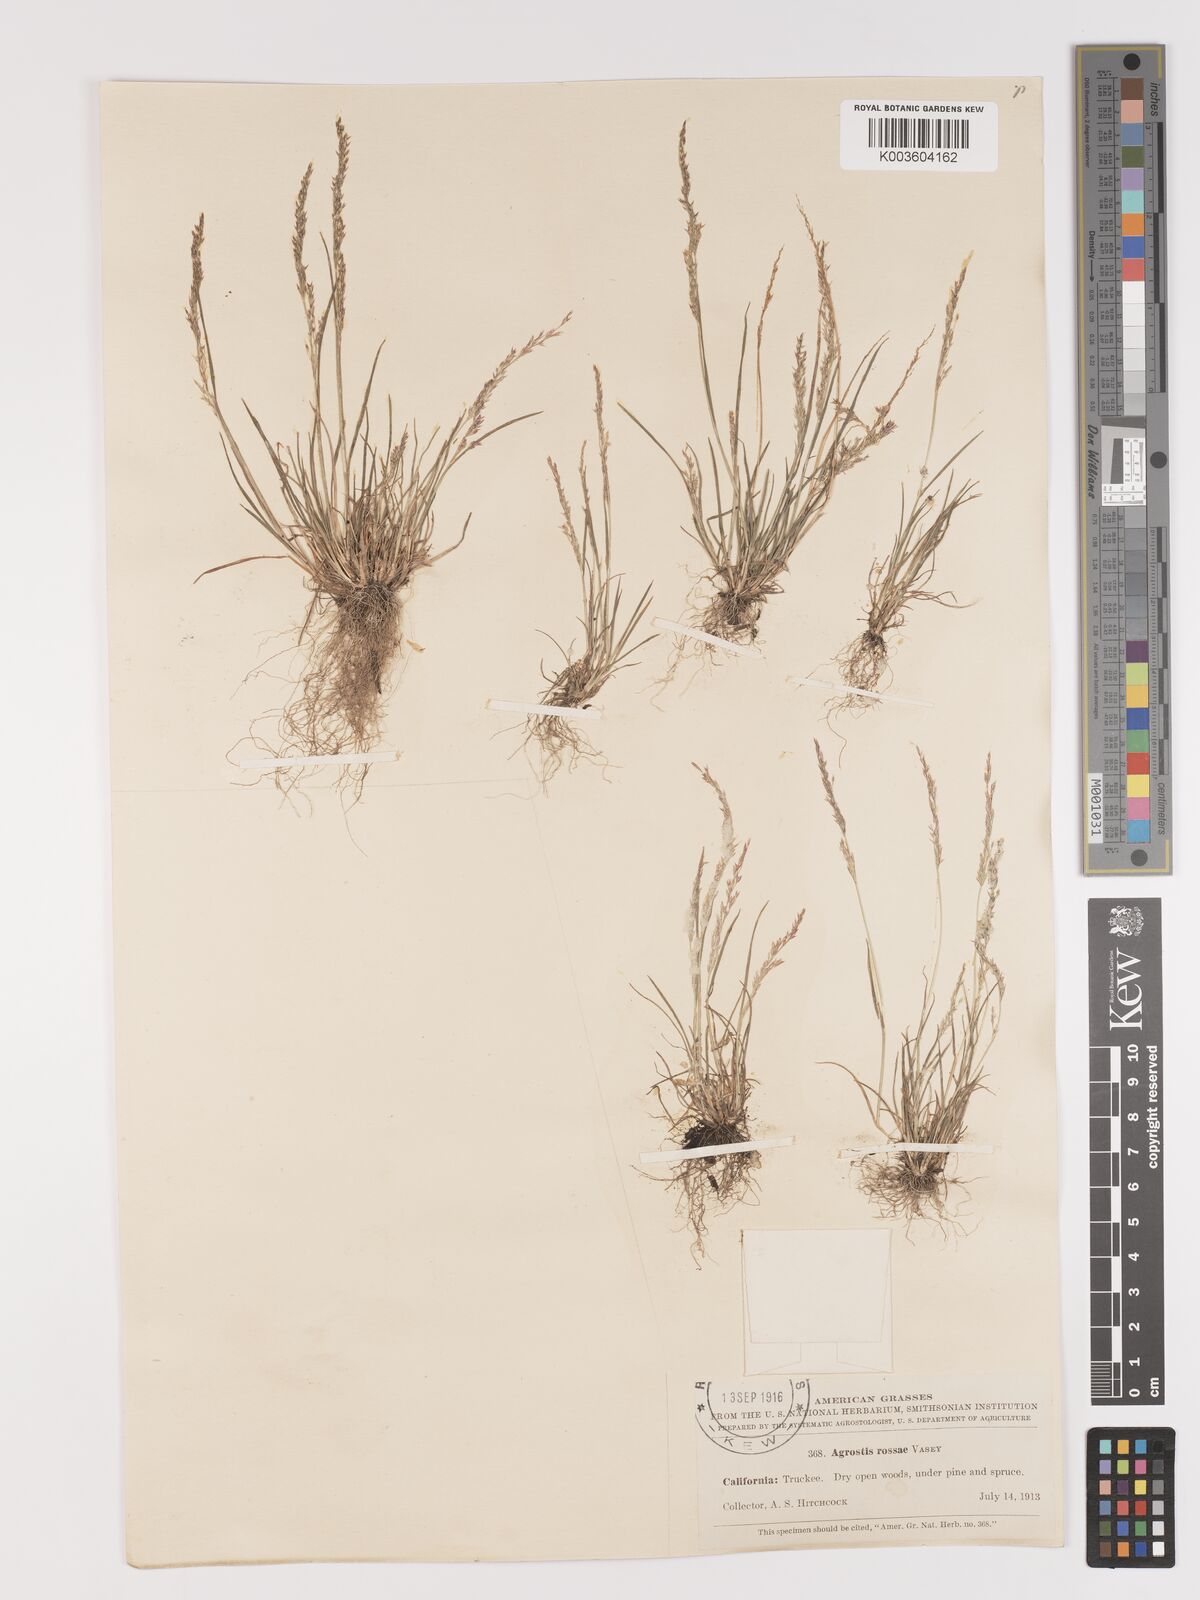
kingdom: Plantae
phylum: Tracheophyta
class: Liliopsida
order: Poales
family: Poaceae
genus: Agrostis
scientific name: Agrostis rossiae
